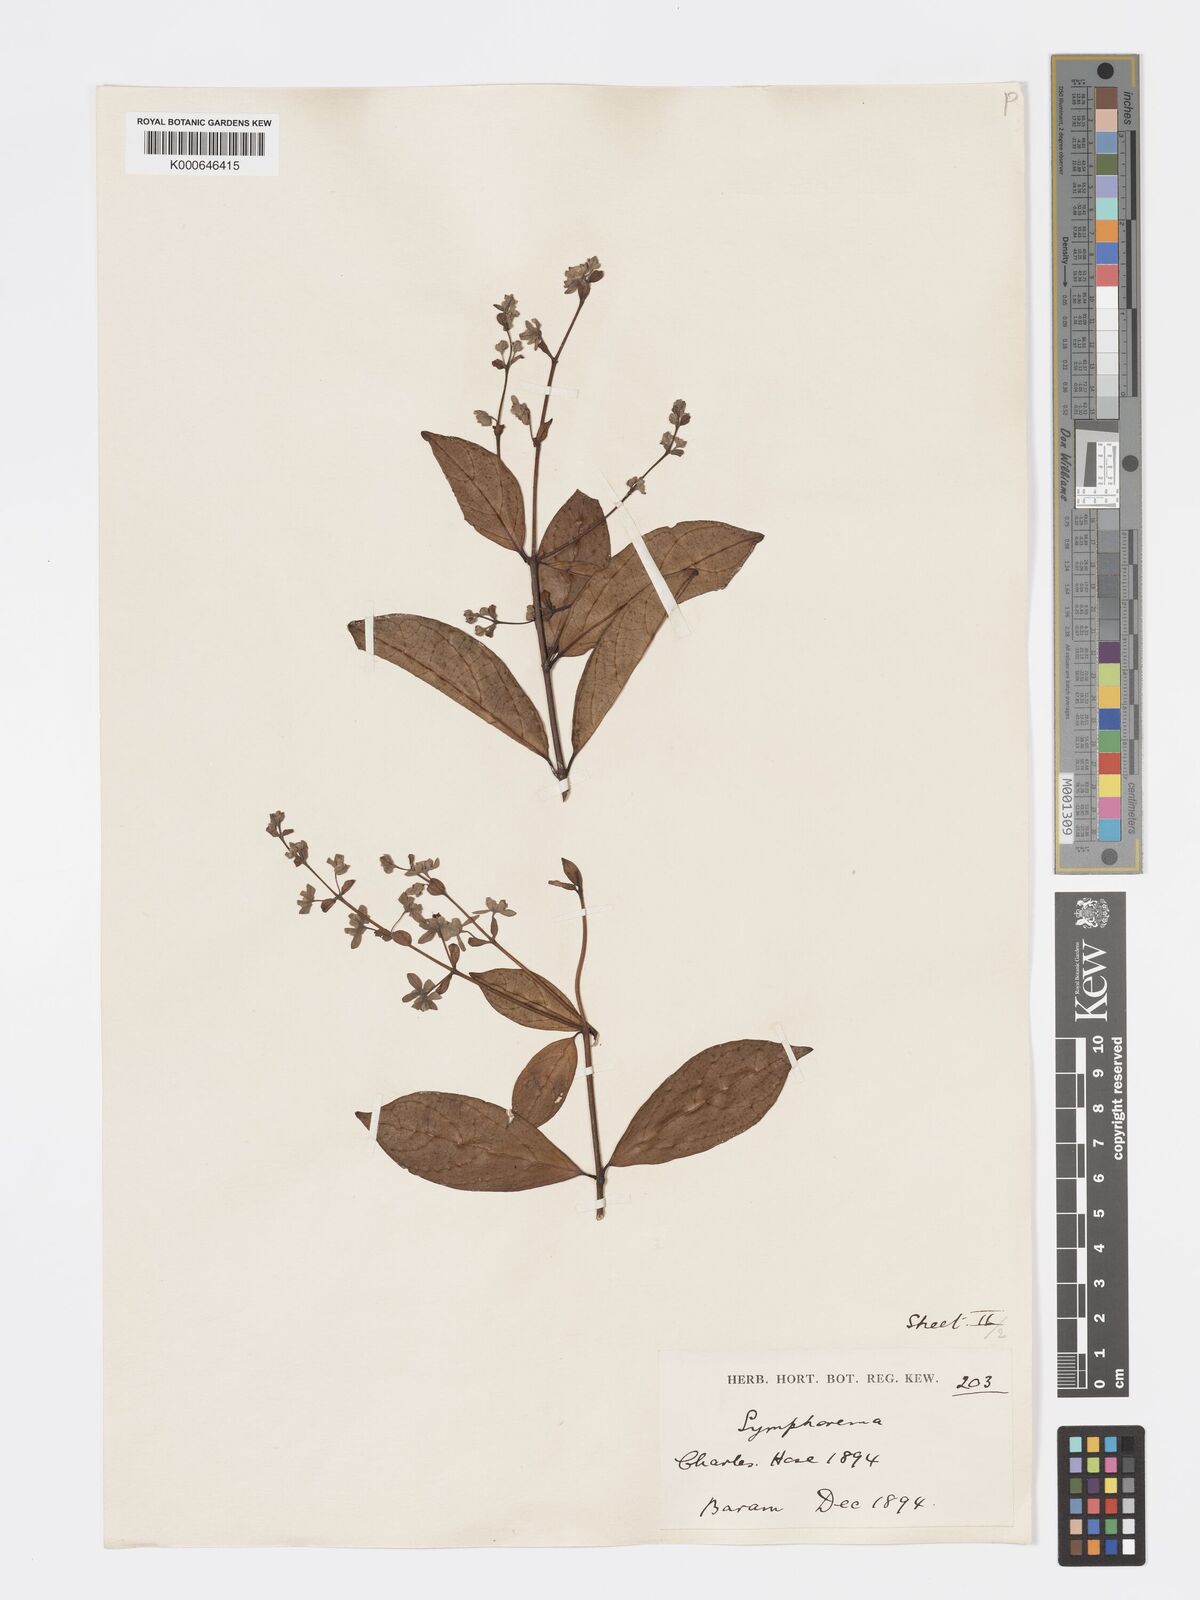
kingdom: Plantae
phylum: Tracheophyta
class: Magnoliopsida
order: Lamiales
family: Lamiaceae
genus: Sphenodesme
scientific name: Sphenodesme triflora
